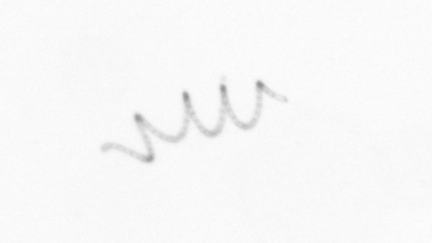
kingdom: Chromista
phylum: Ochrophyta
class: Bacillariophyceae
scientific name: Bacillariophyceae
